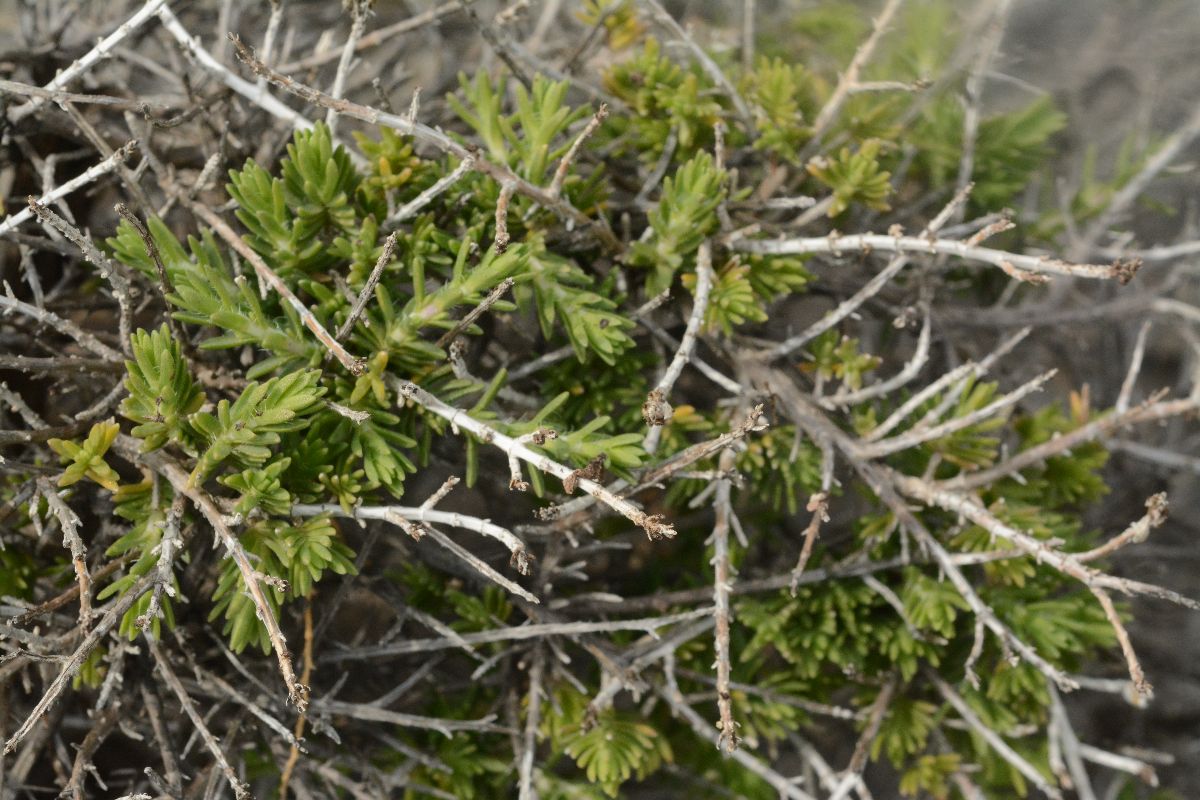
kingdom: Plantae
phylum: Tracheophyta
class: Magnoliopsida
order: Lamiales
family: Lamiaceae
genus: Thymbra
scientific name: Thymbra capitata
